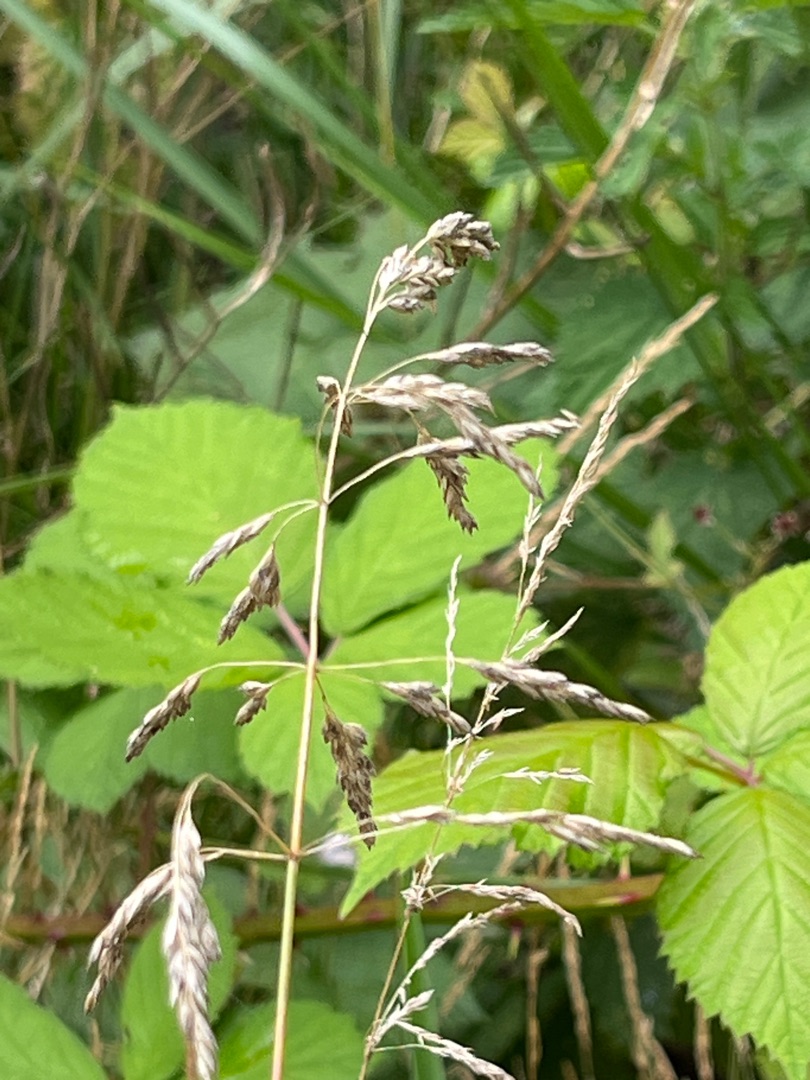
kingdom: Plantae
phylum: Tracheophyta
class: Liliopsida
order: Poales
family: Poaceae
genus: Poa
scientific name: Poa pratensis
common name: Eng-rapgræs (underart)
